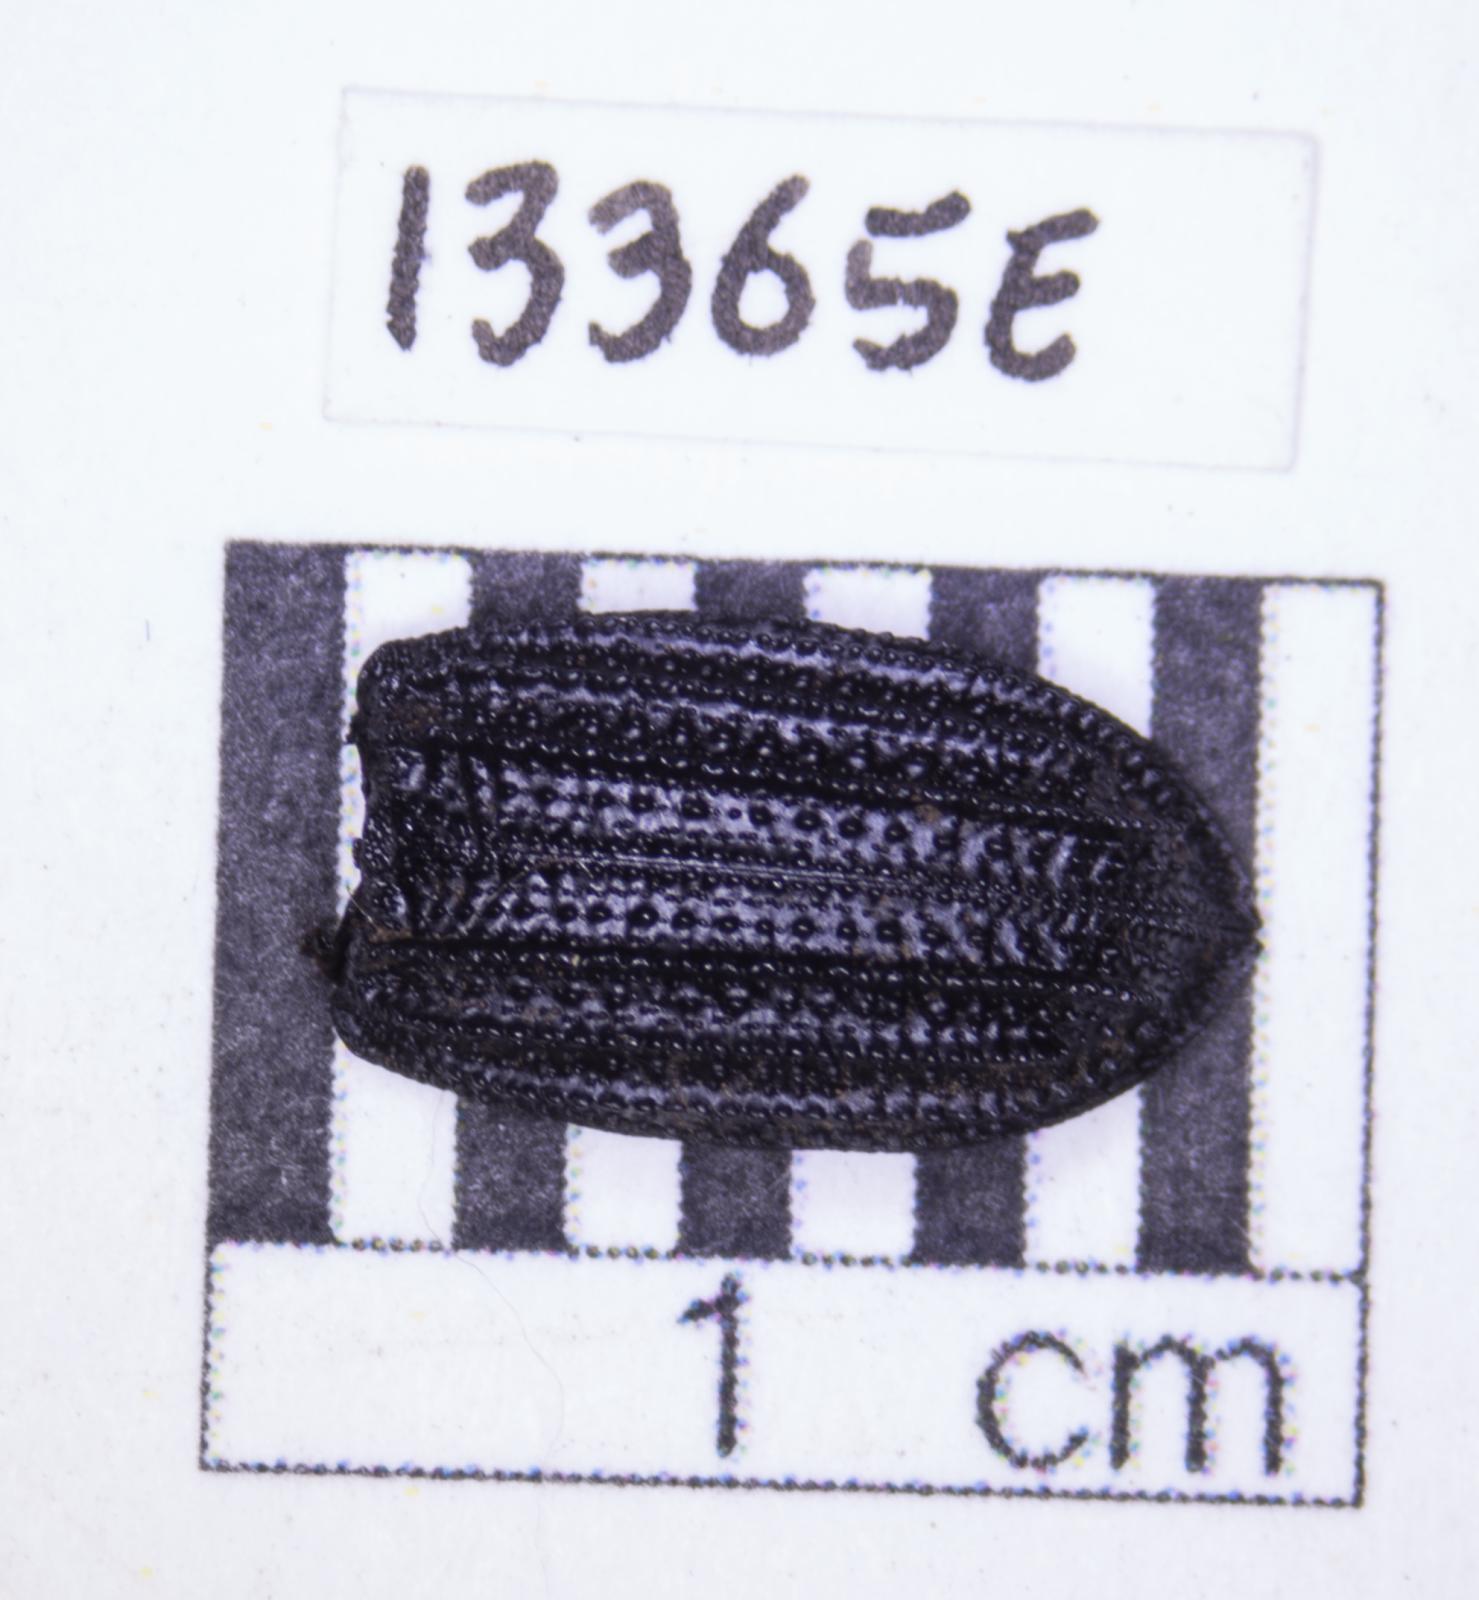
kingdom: Animalia
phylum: Arthropoda
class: Insecta
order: Coleoptera
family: Tenebrionidae
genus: Nyctoporis
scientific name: Nyctoporis carinata
